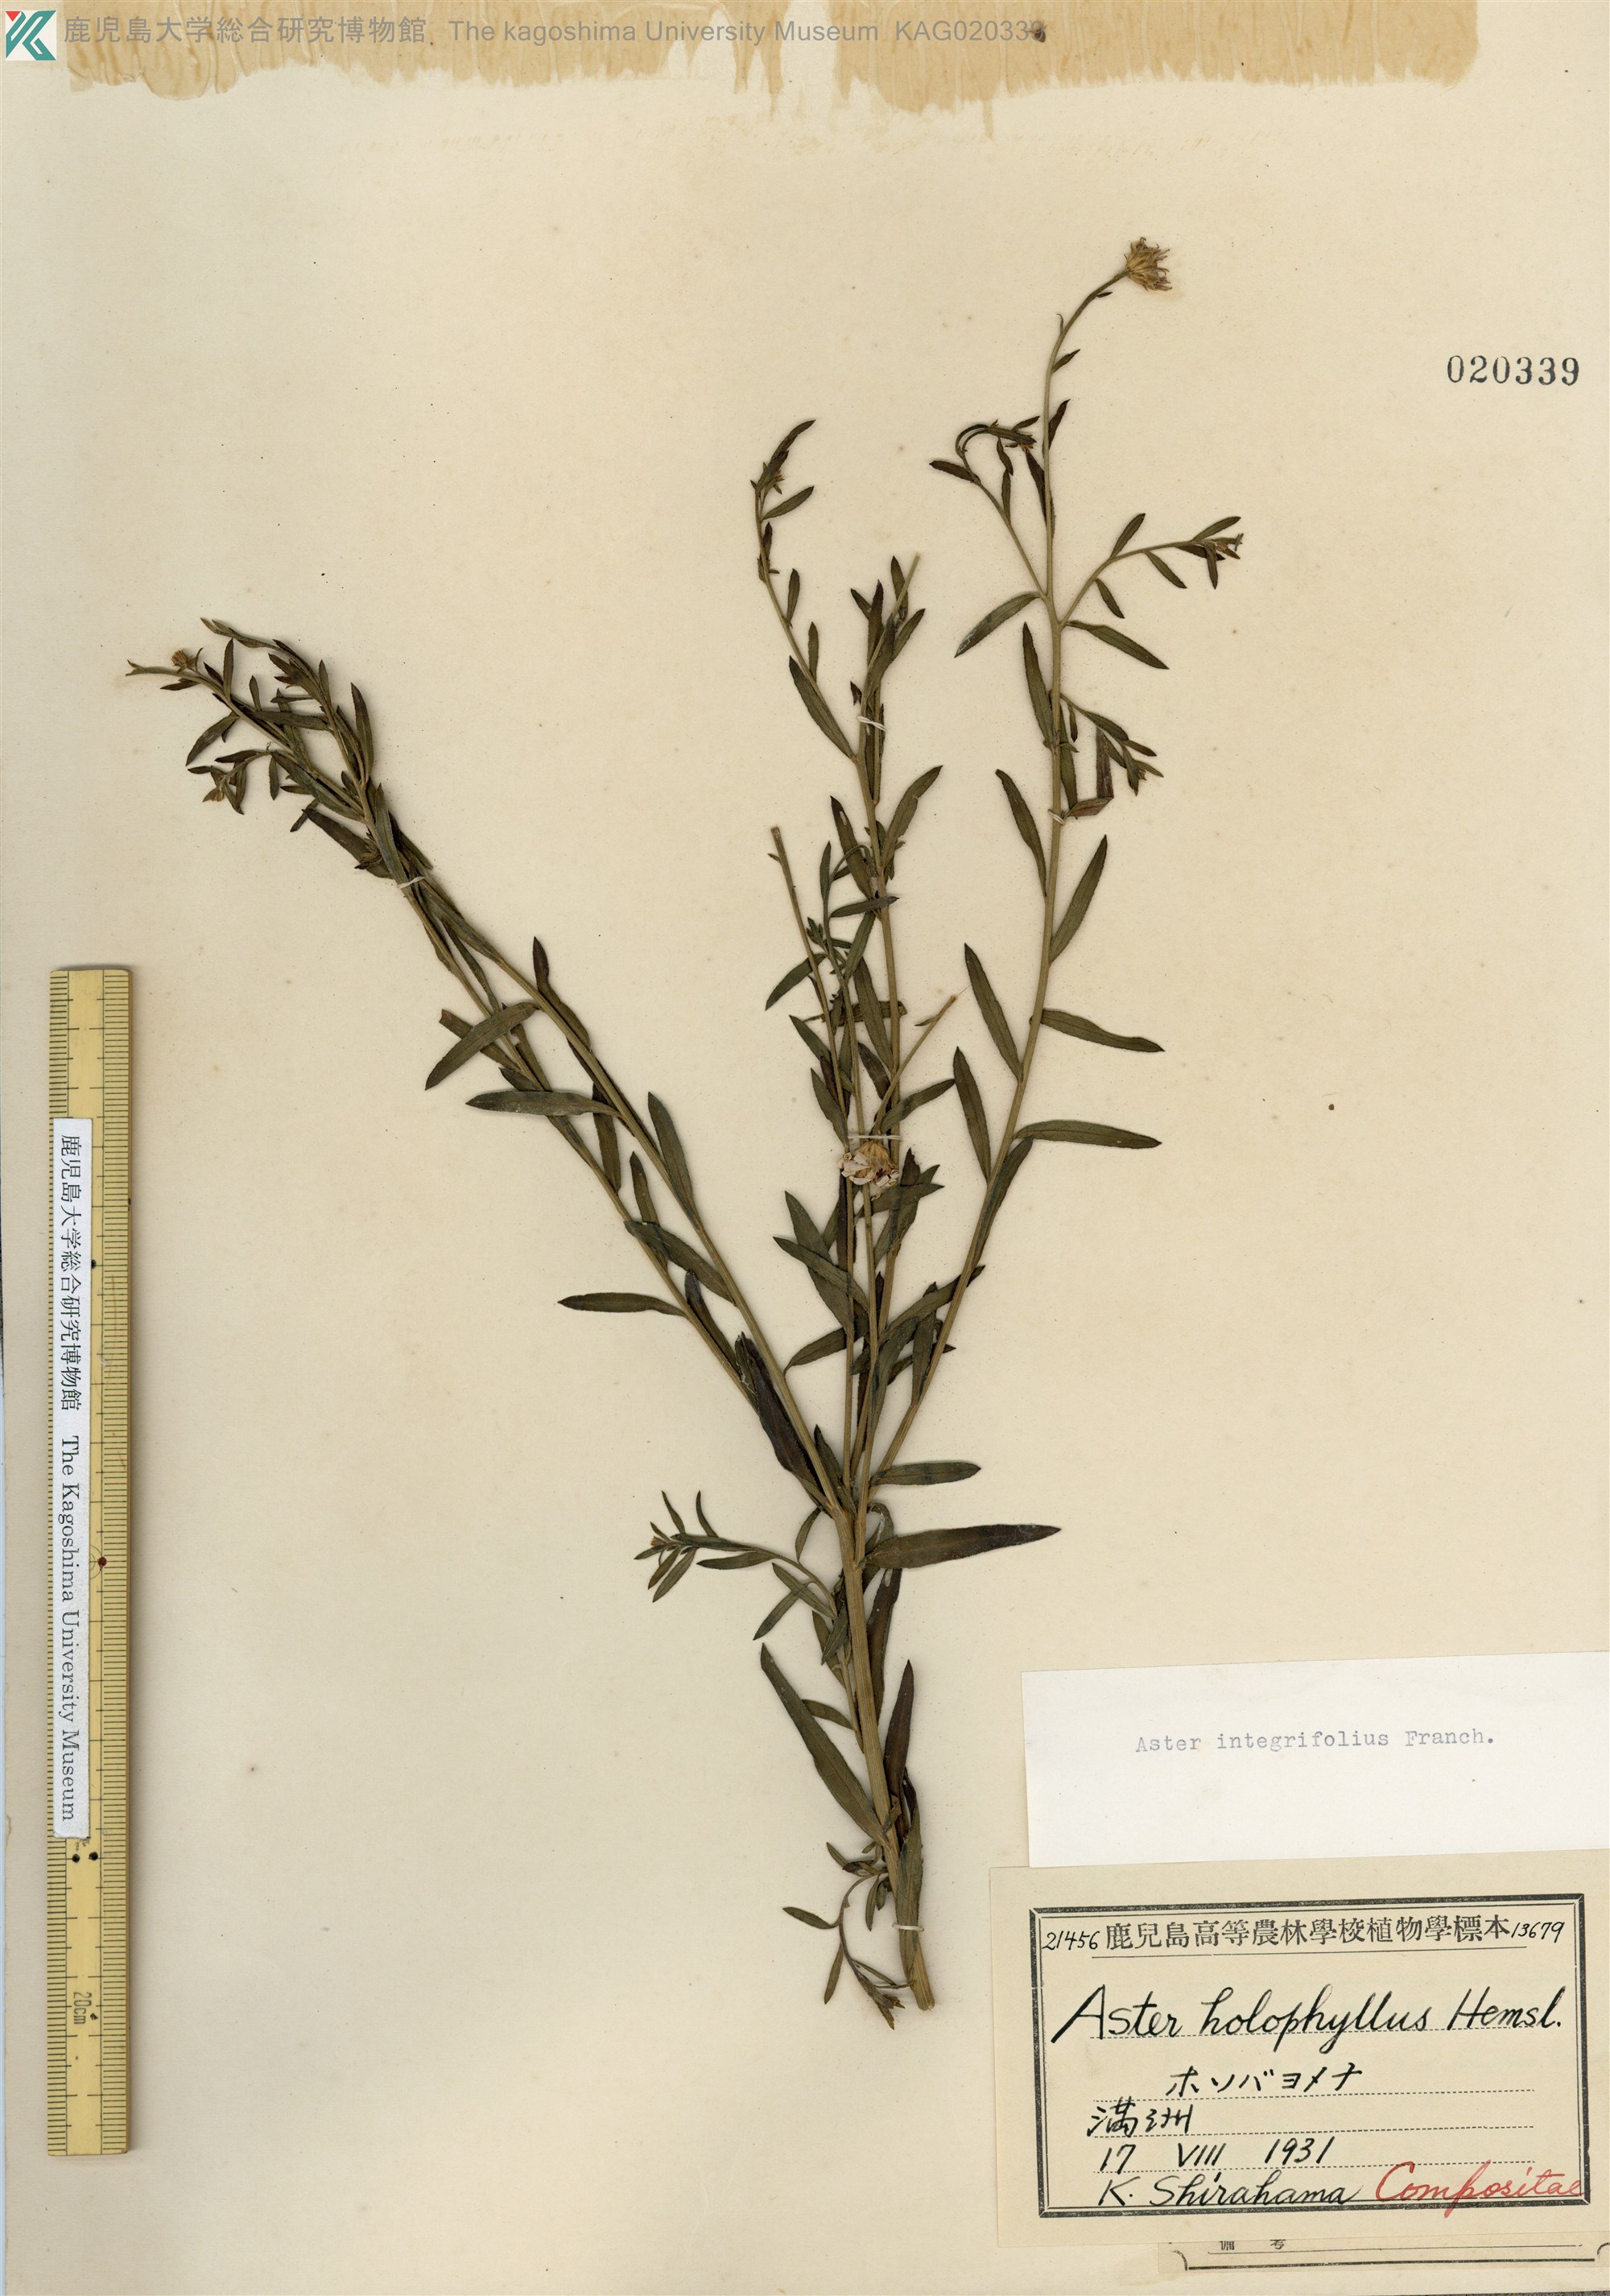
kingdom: Plantae
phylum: Tracheophyta
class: Magnoliopsida
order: Asterales
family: Asteraceae
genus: Kalimeris
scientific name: Kalimeris integrifolia
